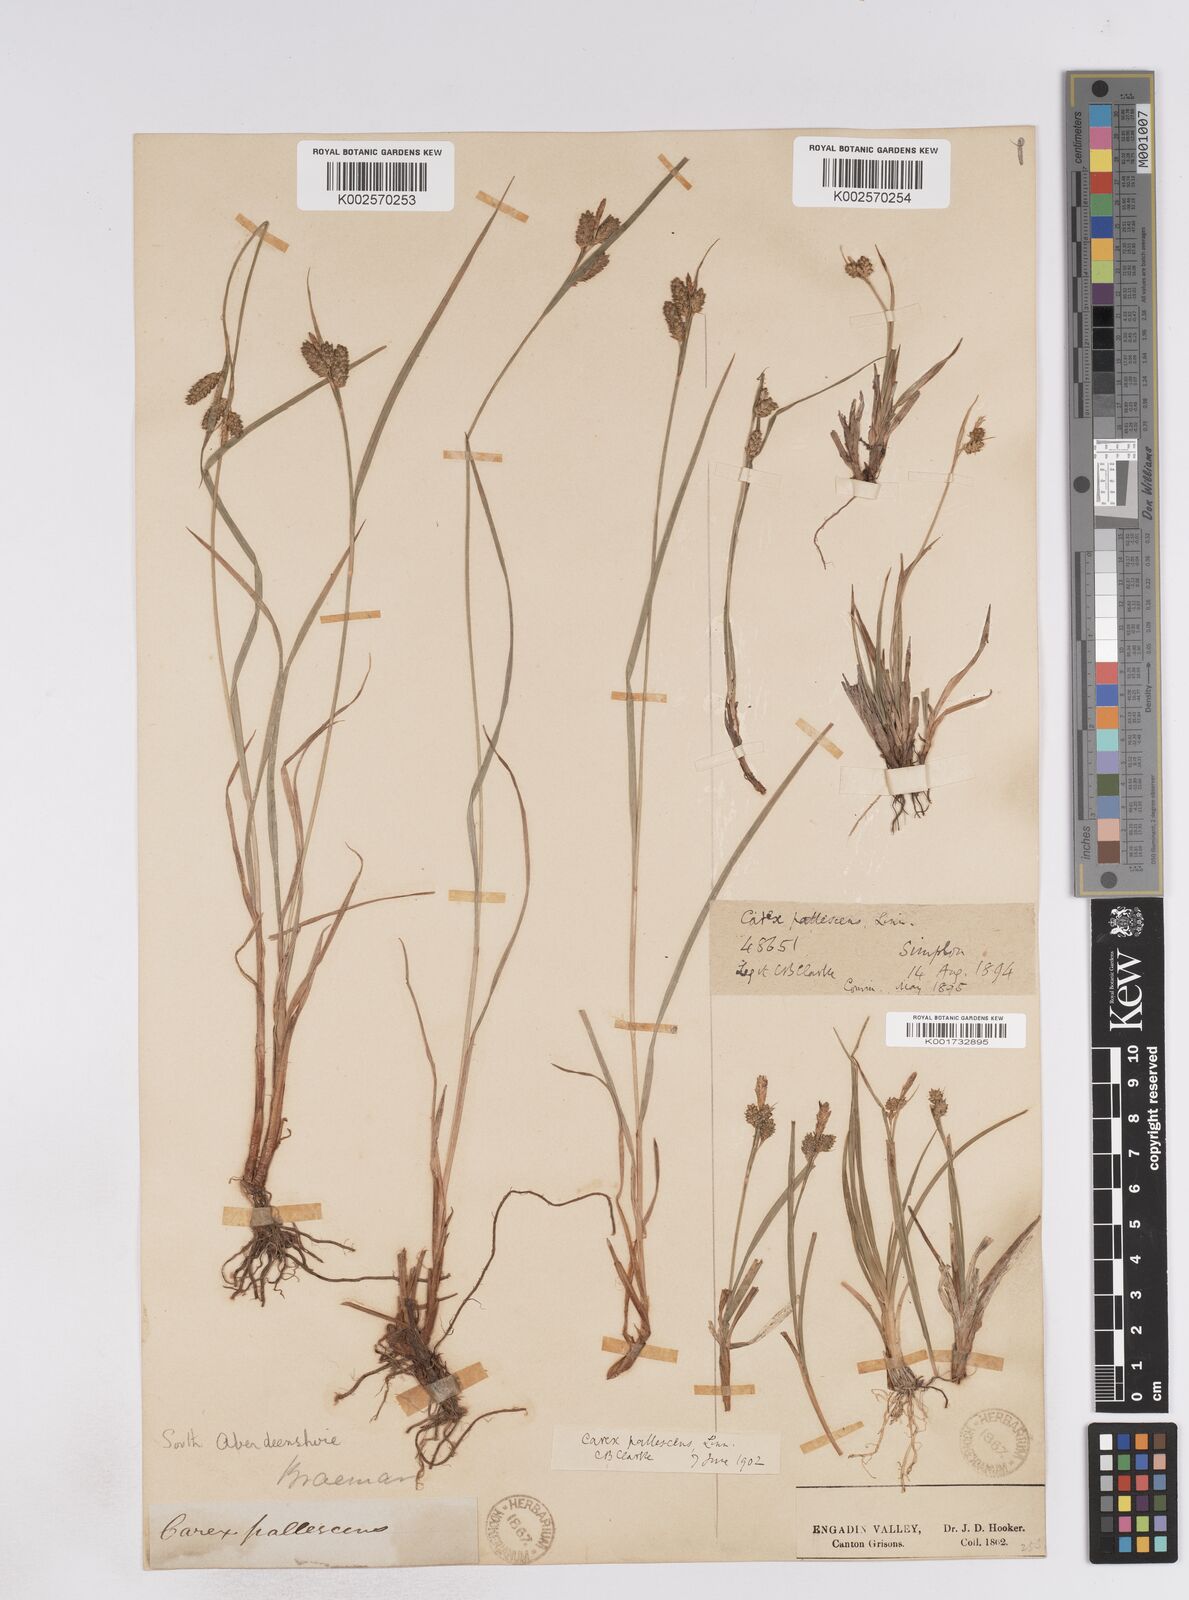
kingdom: Plantae
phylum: Tracheophyta
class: Liliopsida
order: Poales
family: Cyperaceae
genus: Carex
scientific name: Carex pallescens
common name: Pale sedge
